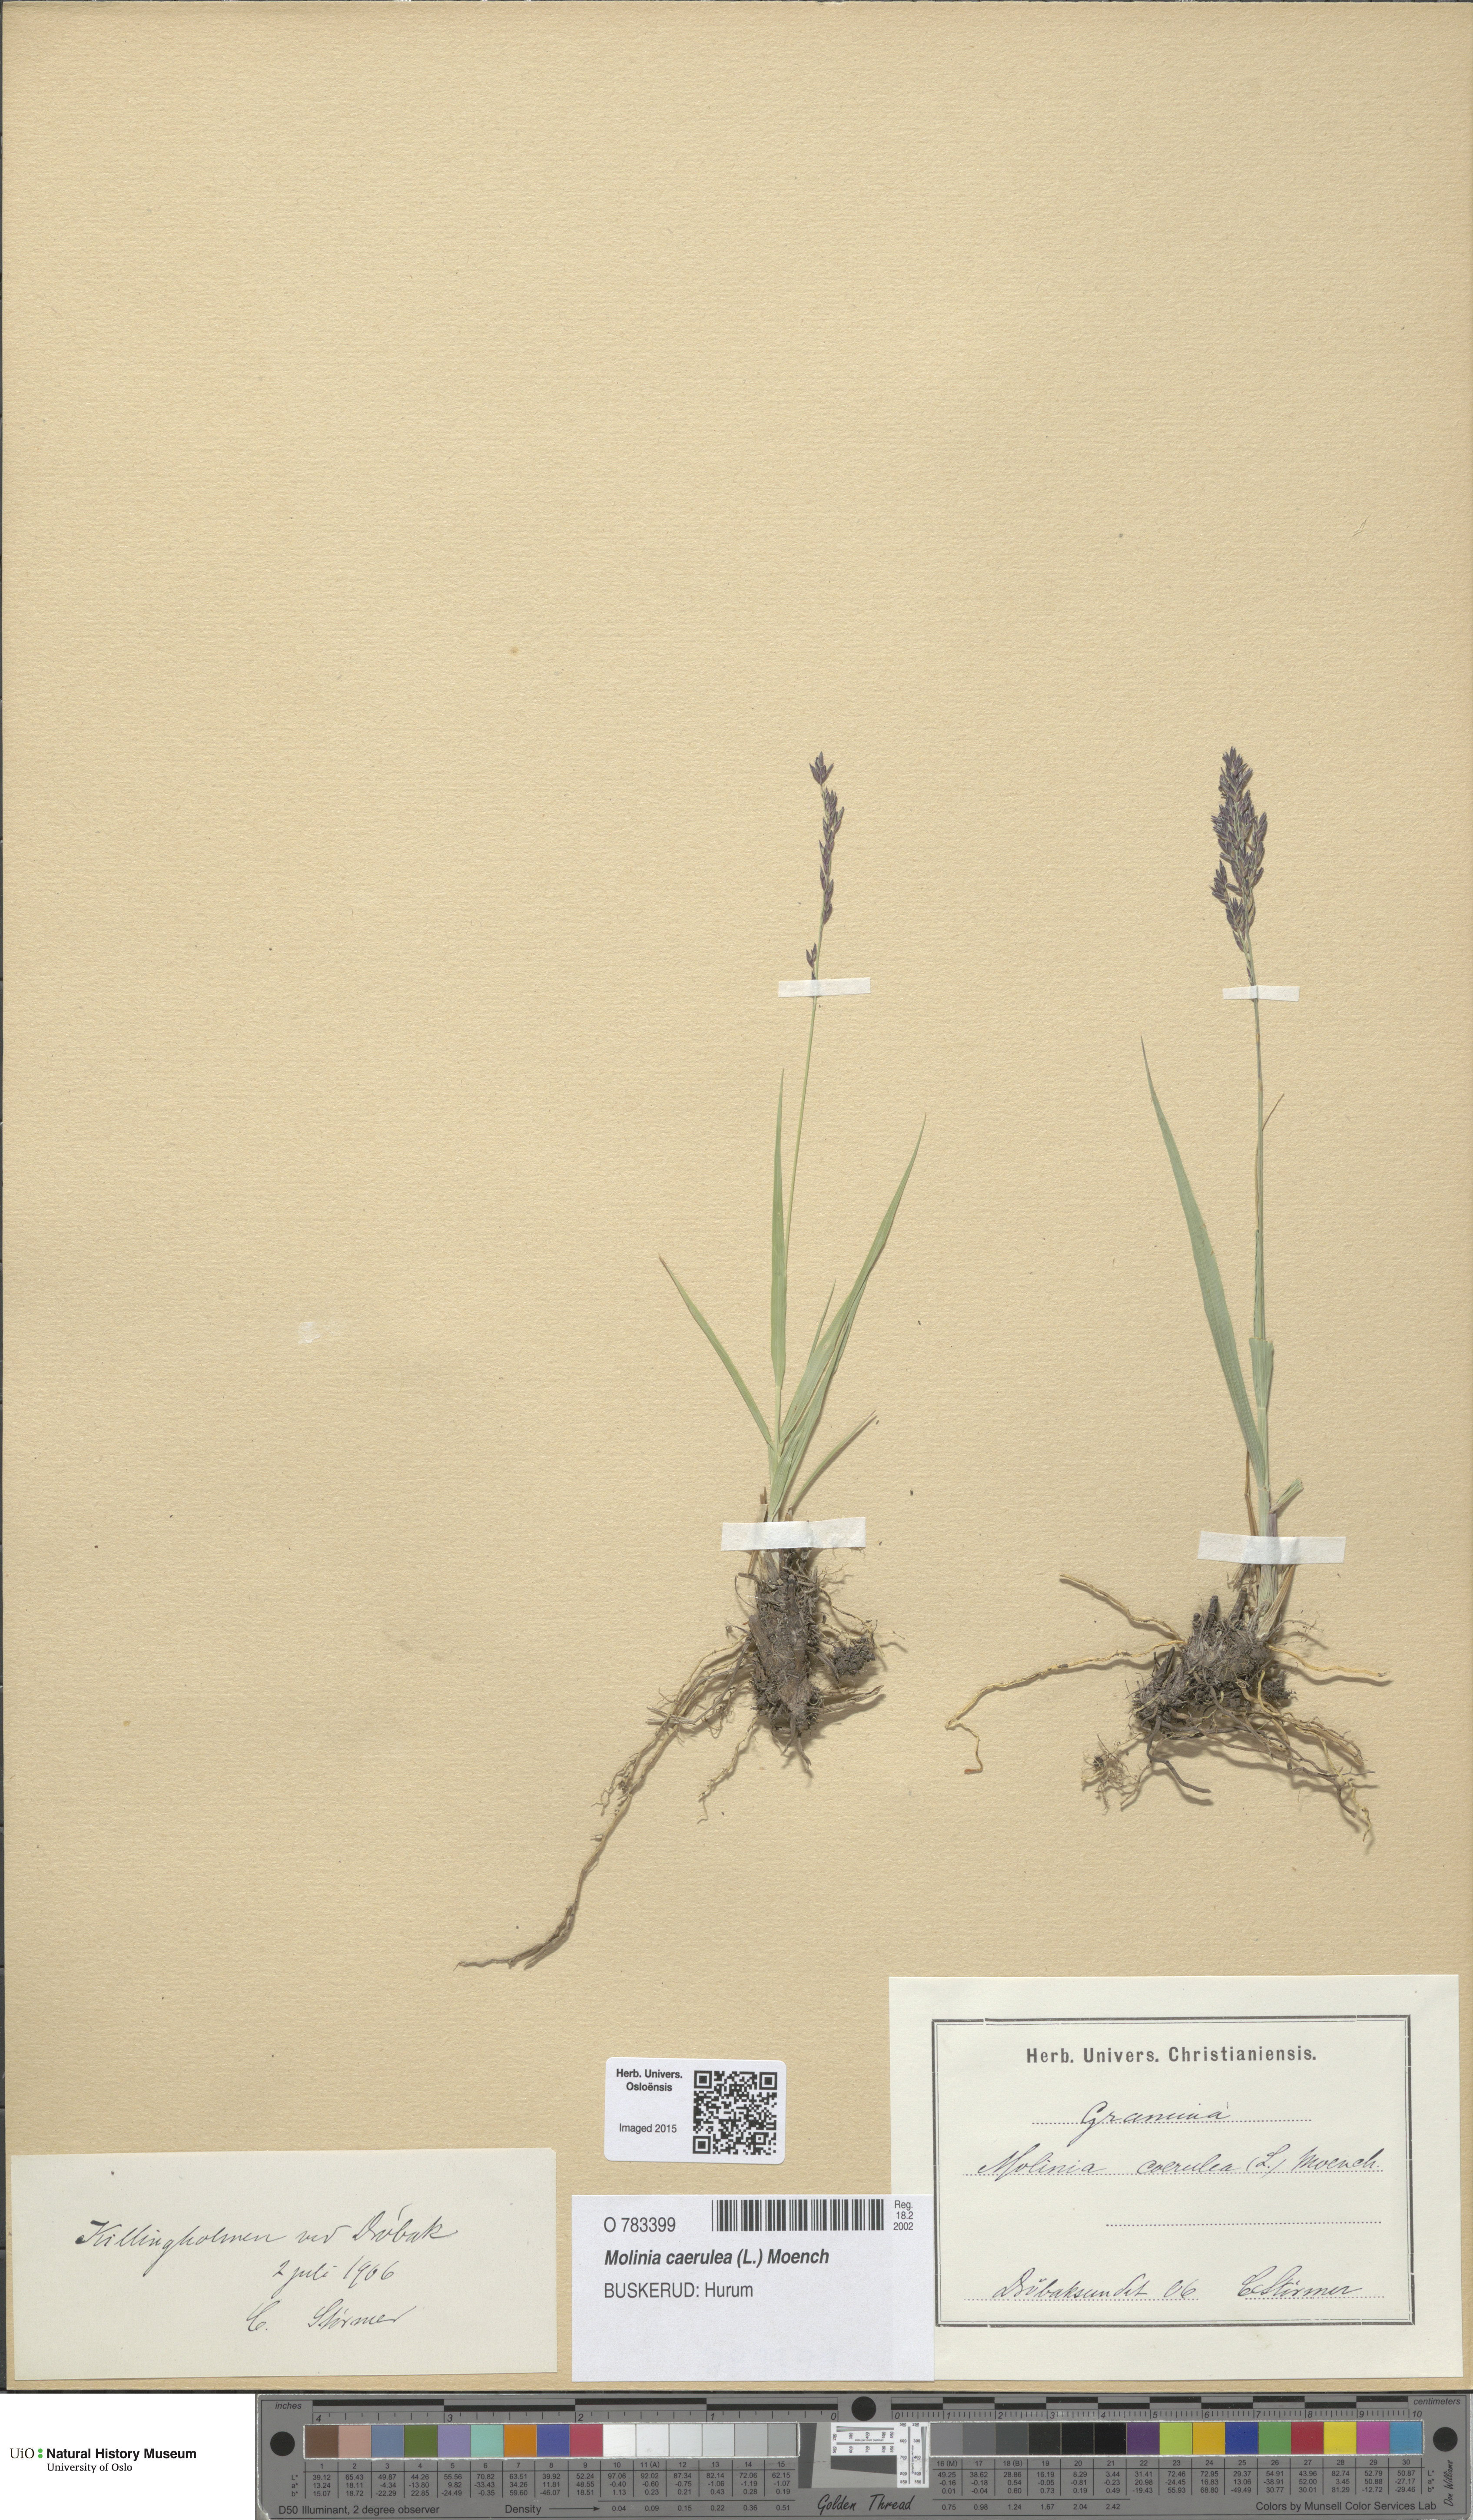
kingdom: Plantae
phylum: Tracheophyta
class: Liliopsida
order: Poales
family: Poaceae
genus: Molinia
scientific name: Molinia caerulea
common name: Purple moor-grass
